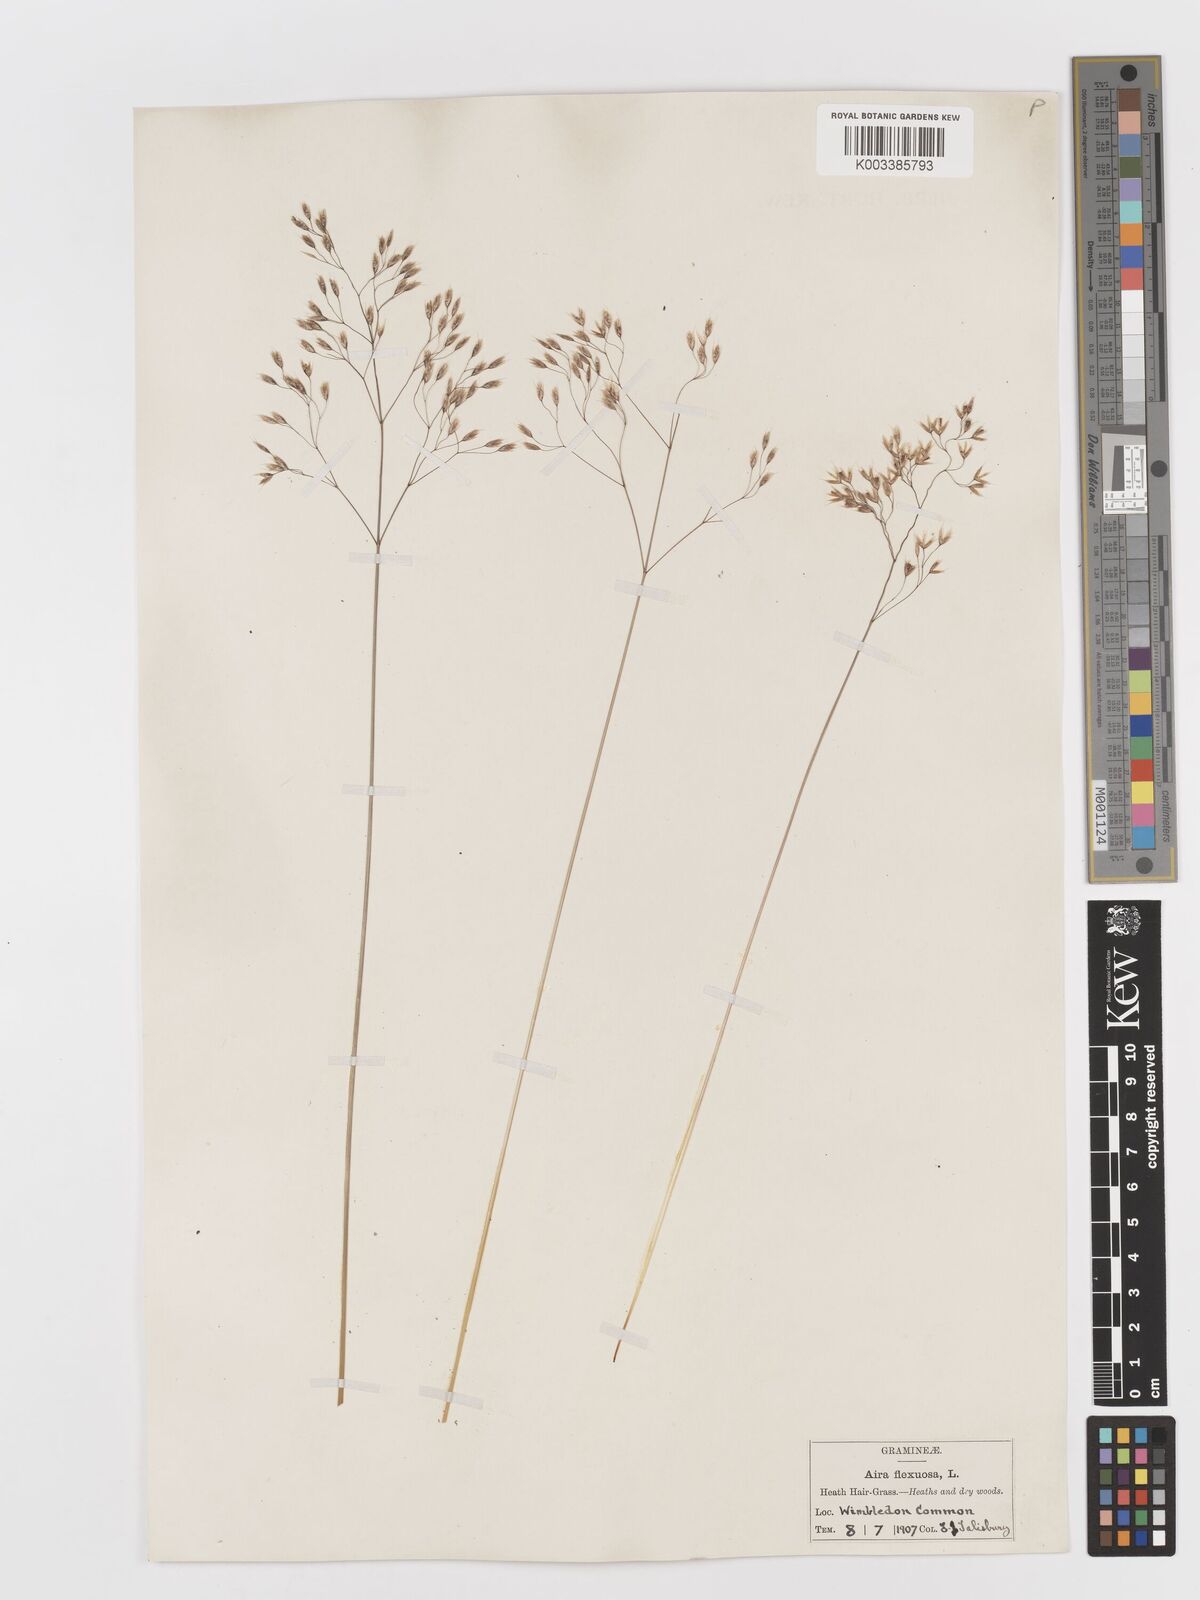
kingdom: Plantae
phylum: Tracheophyta
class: Liliopsida
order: Poales
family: Poaceae
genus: Avenella
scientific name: Avenella flexuosa
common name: Wavy hairgrass
